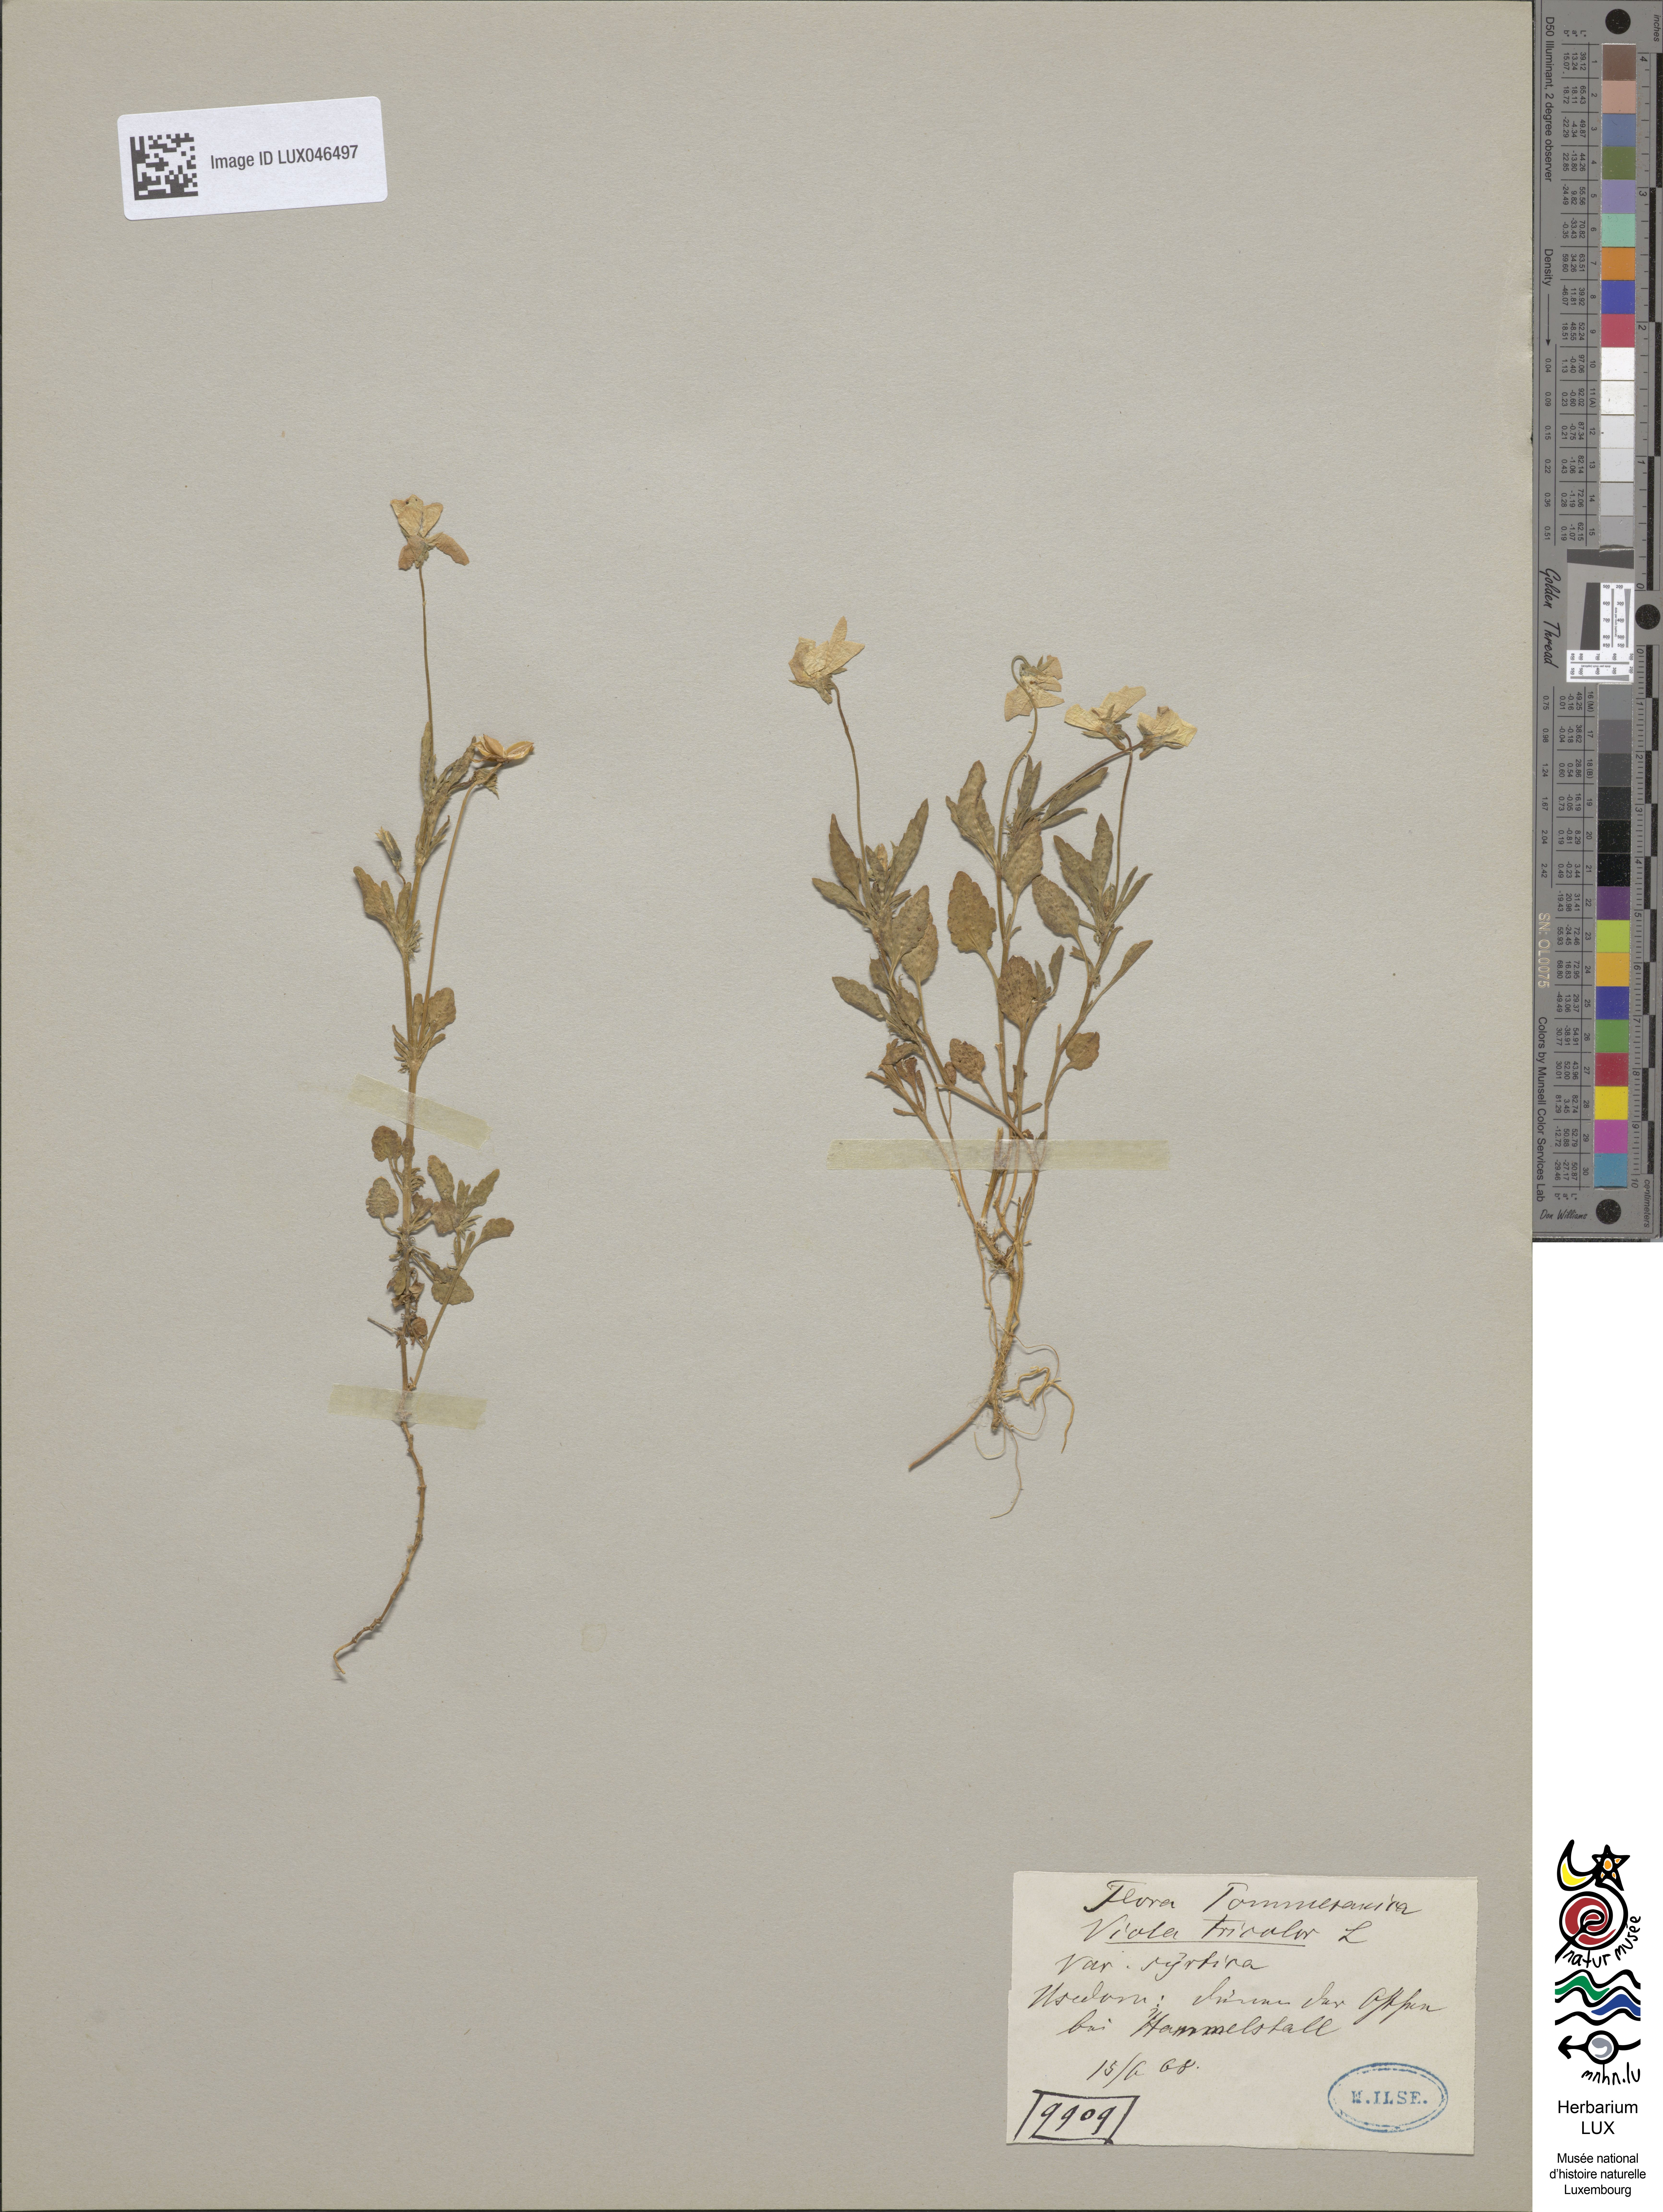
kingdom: Plantae
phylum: Tracheophyta
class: Magnoliopsida
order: Malpighiales
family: Violaceae
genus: Viola
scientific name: Viola tricolor
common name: Pansy
